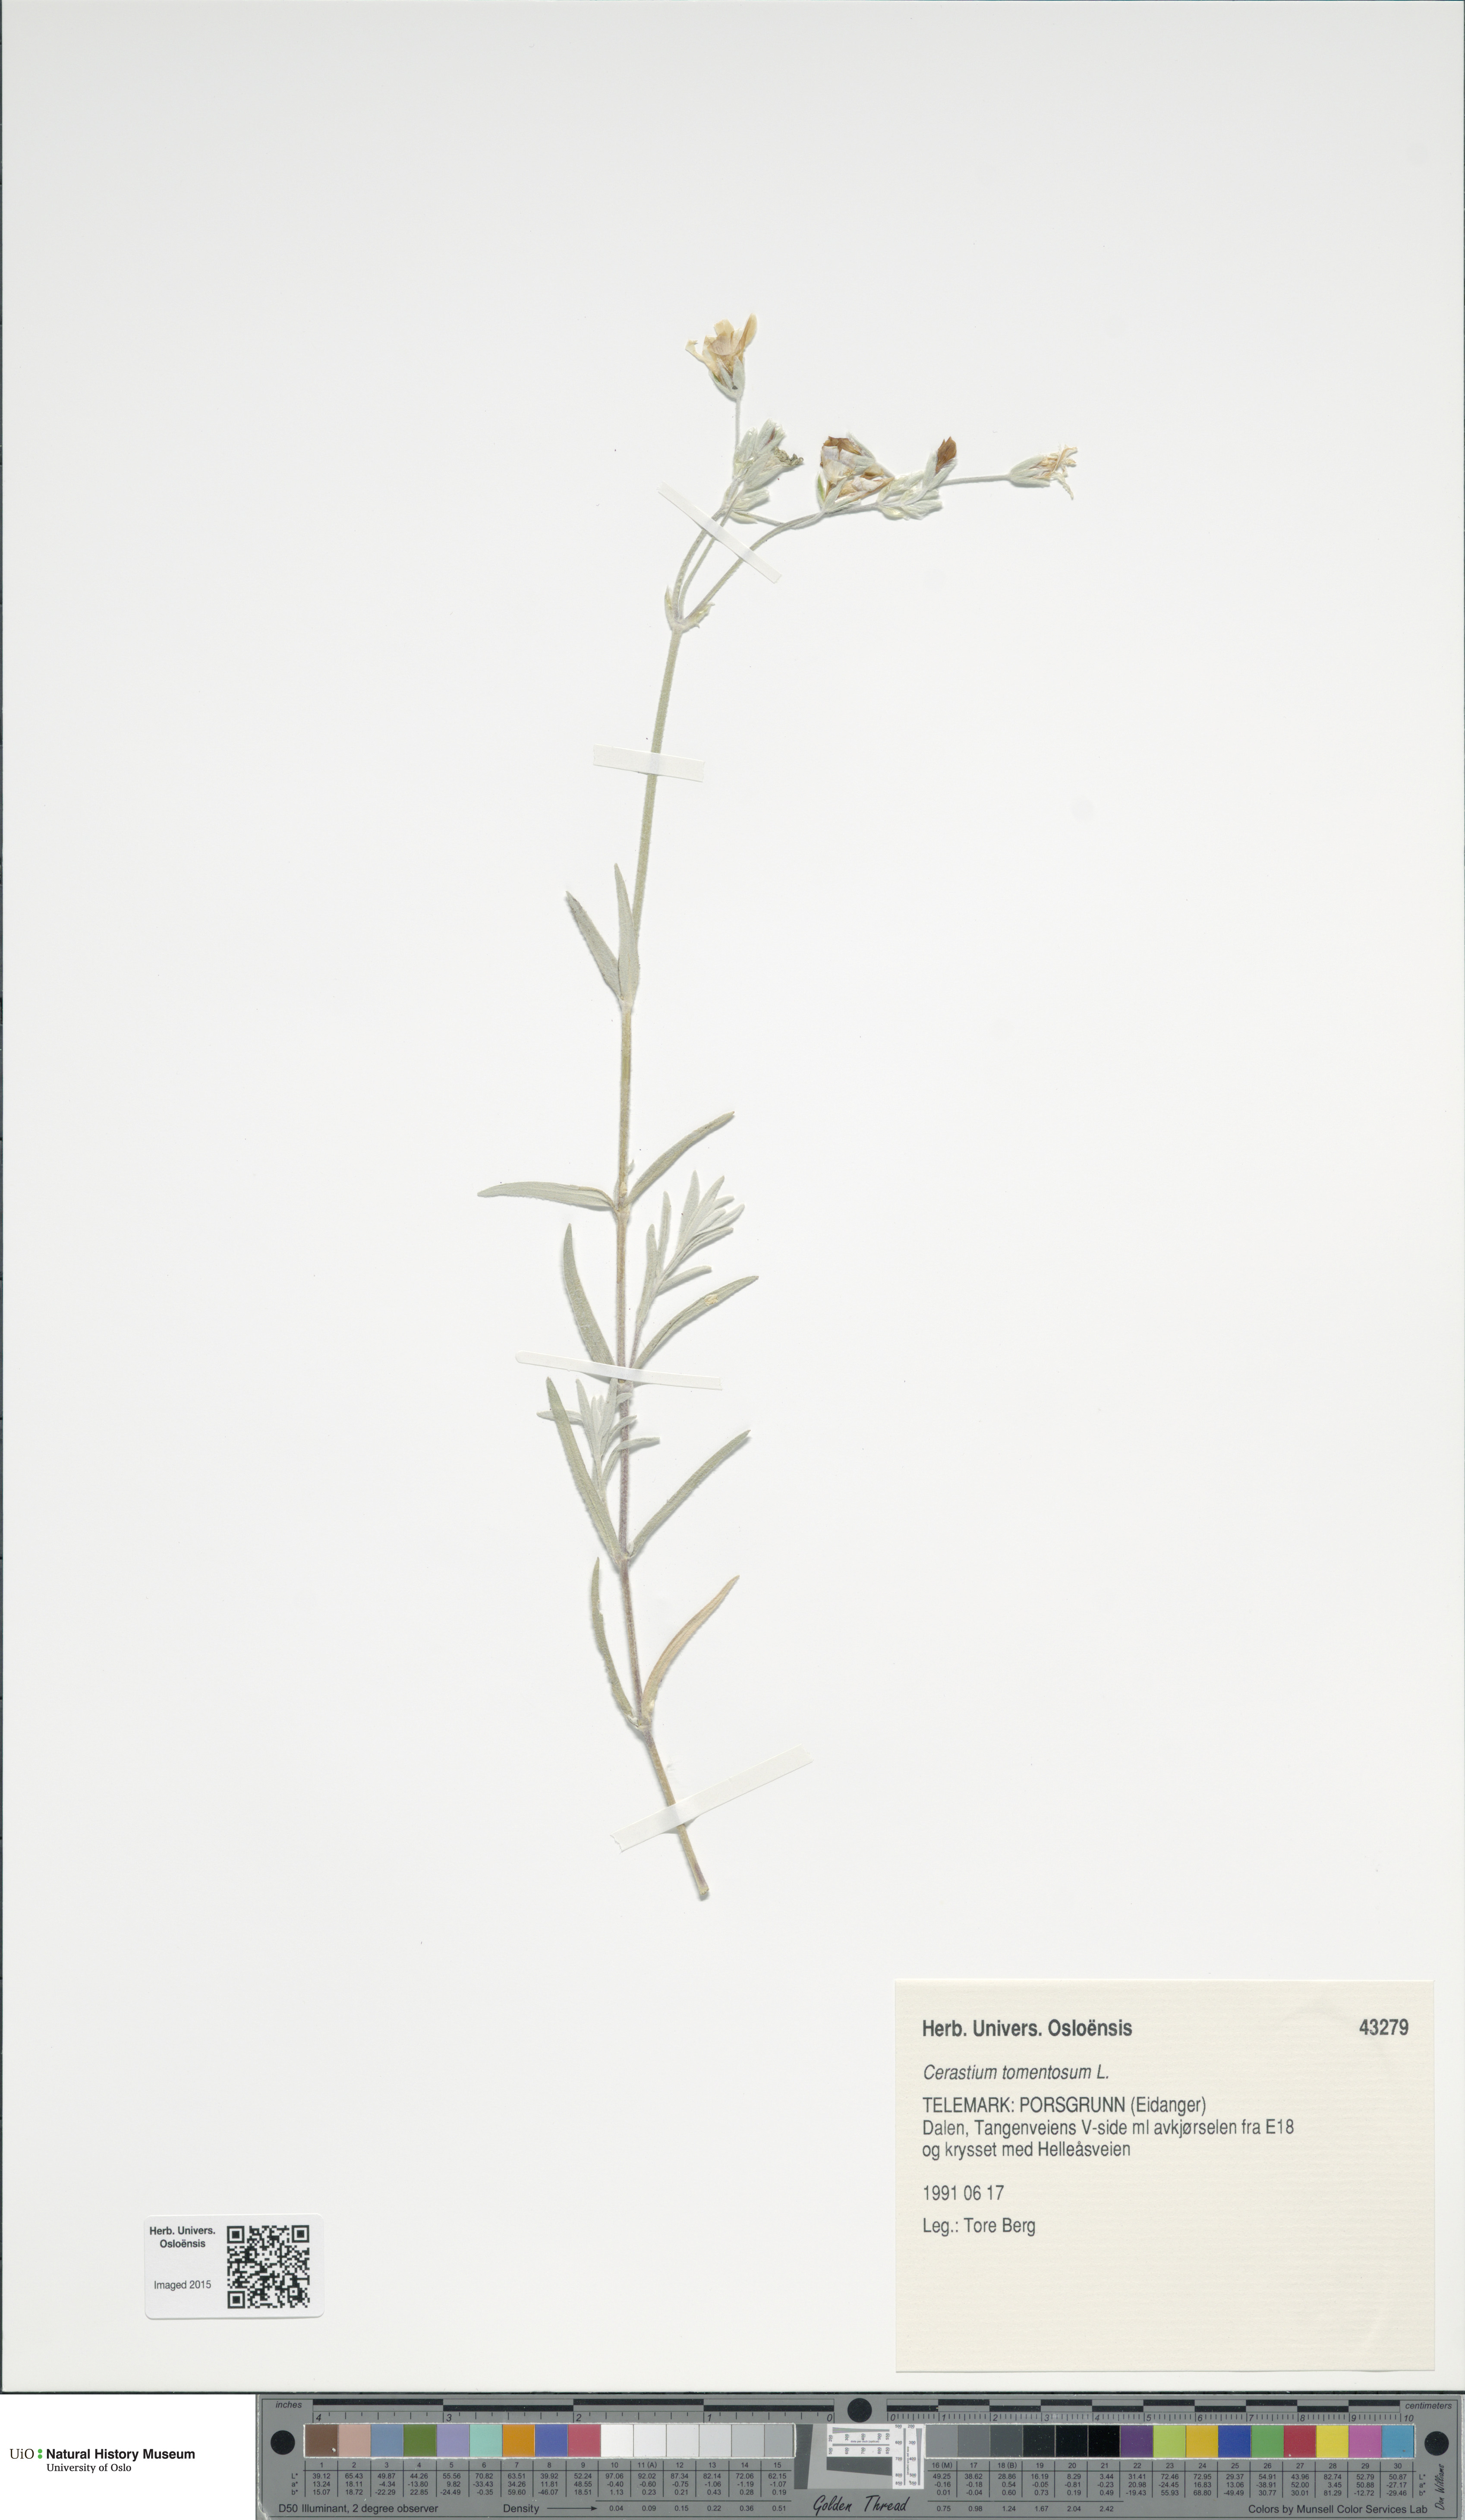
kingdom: Plantae
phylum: Tracheophyta
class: Magnoliopsida
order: Caryophyllales
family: Caryophyllaceae
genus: Cerastium
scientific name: Cerastium tomentosum
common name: Snow-in-summer
